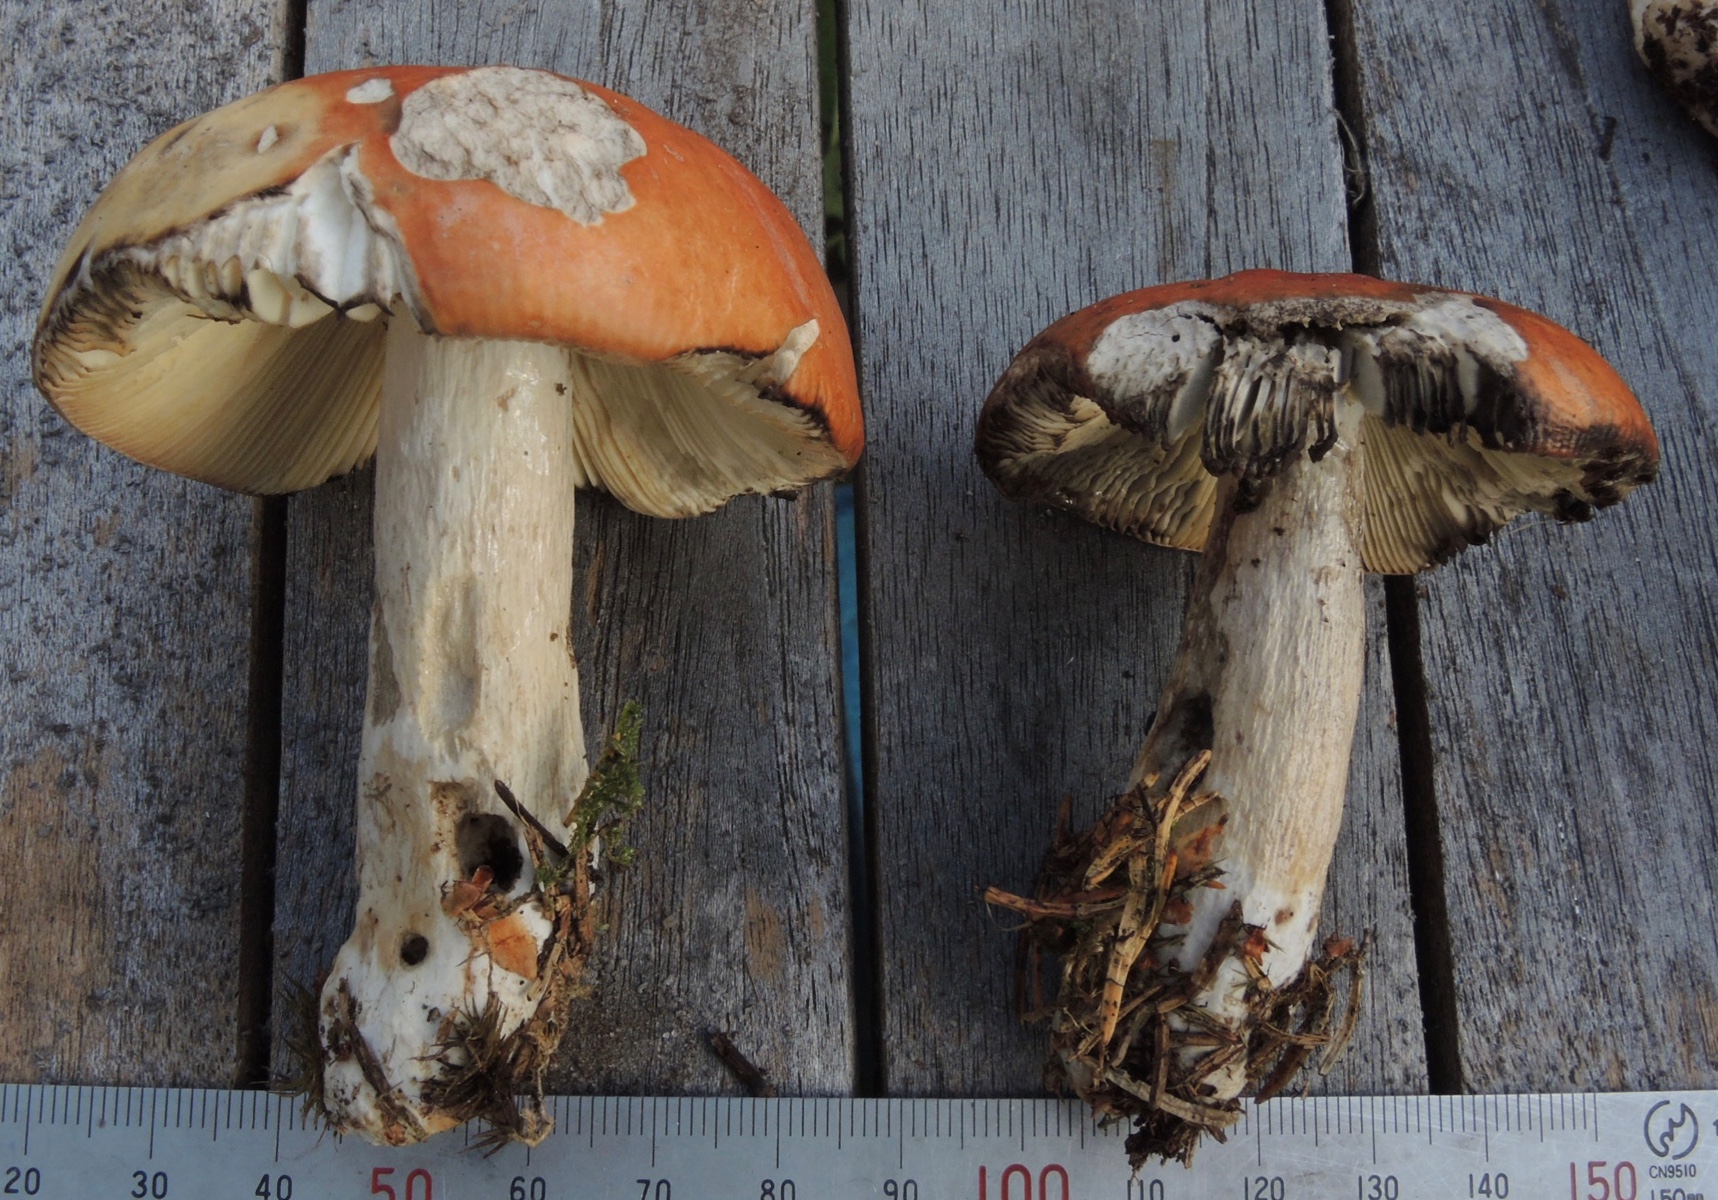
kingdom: Fungi
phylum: Basidiomycota
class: Agaricomycetes
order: Russulales
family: Russulaceae
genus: Russula
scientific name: Russula decolorans
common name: afblegende skørhat
